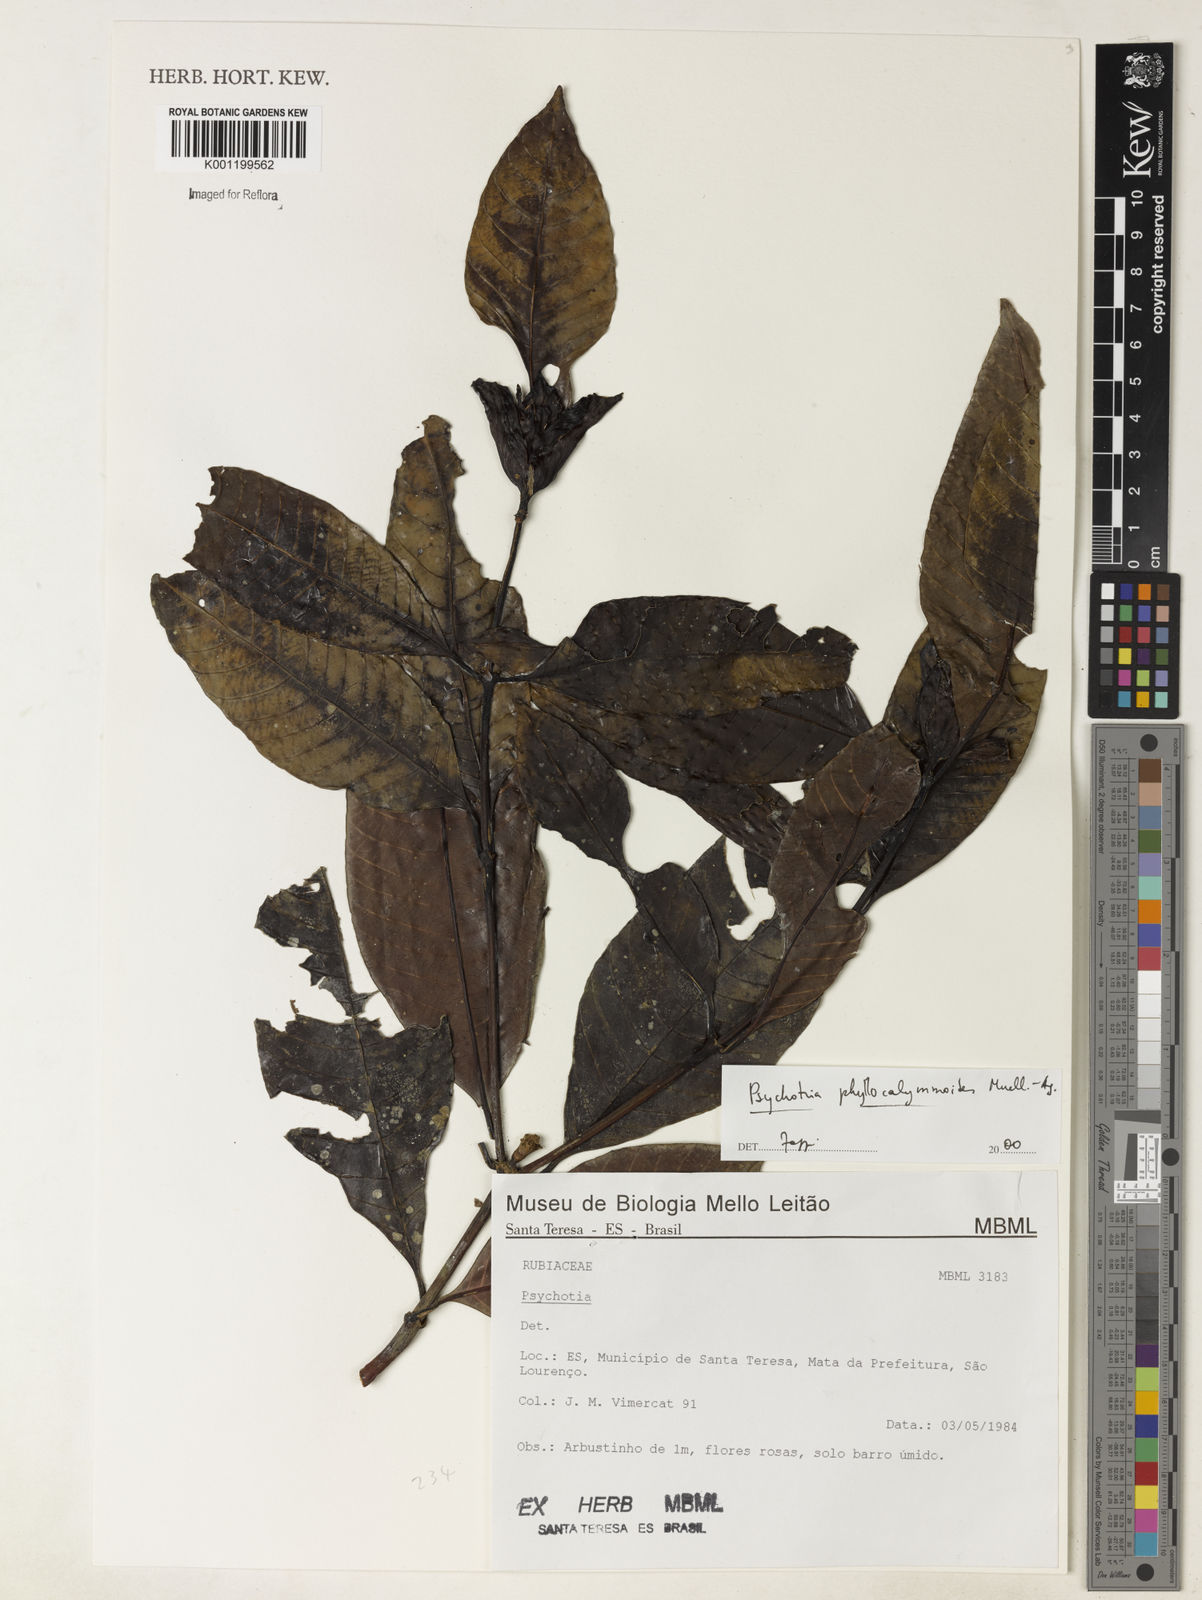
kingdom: Plantae
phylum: Tracheophyta
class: Magnoliopsida
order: Gentianales
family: Rubiaceae
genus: Psychotria
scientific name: Psychotria
